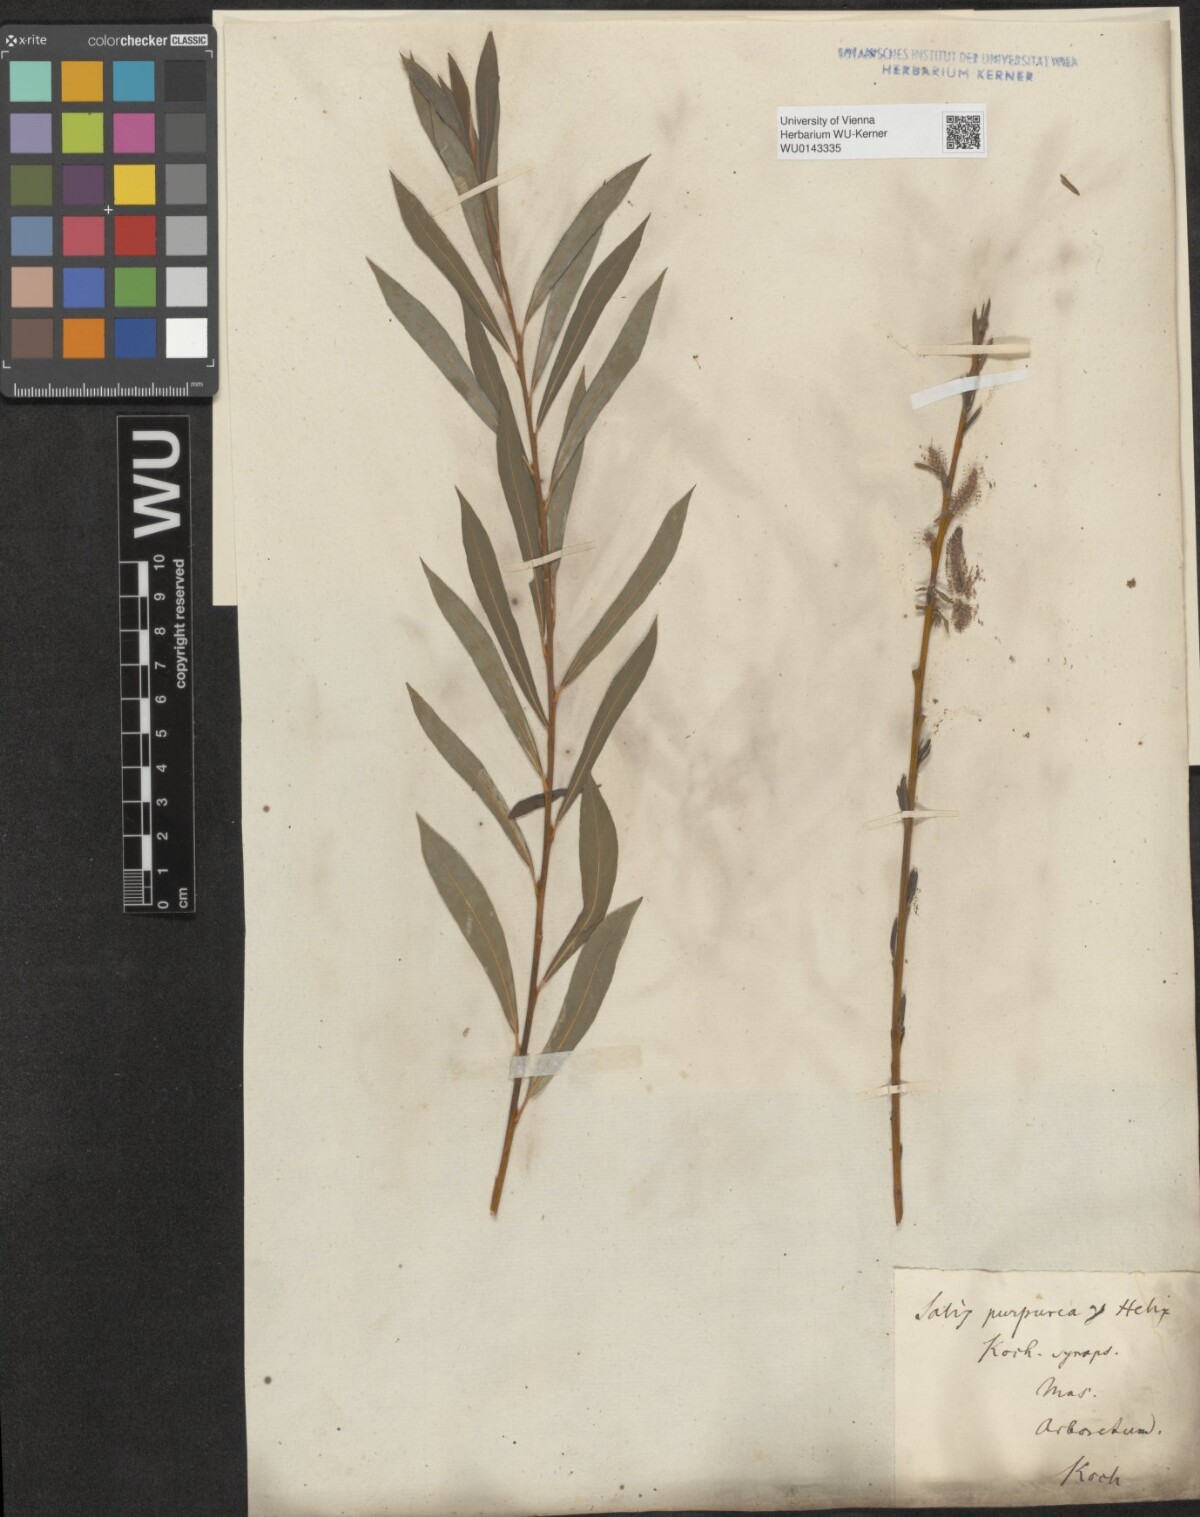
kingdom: Plantae
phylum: Tracheophyta
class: Magnoliopsida
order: Malpighiales
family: Salicaceae
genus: Salix
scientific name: Salix purpurea
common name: Purple willow
